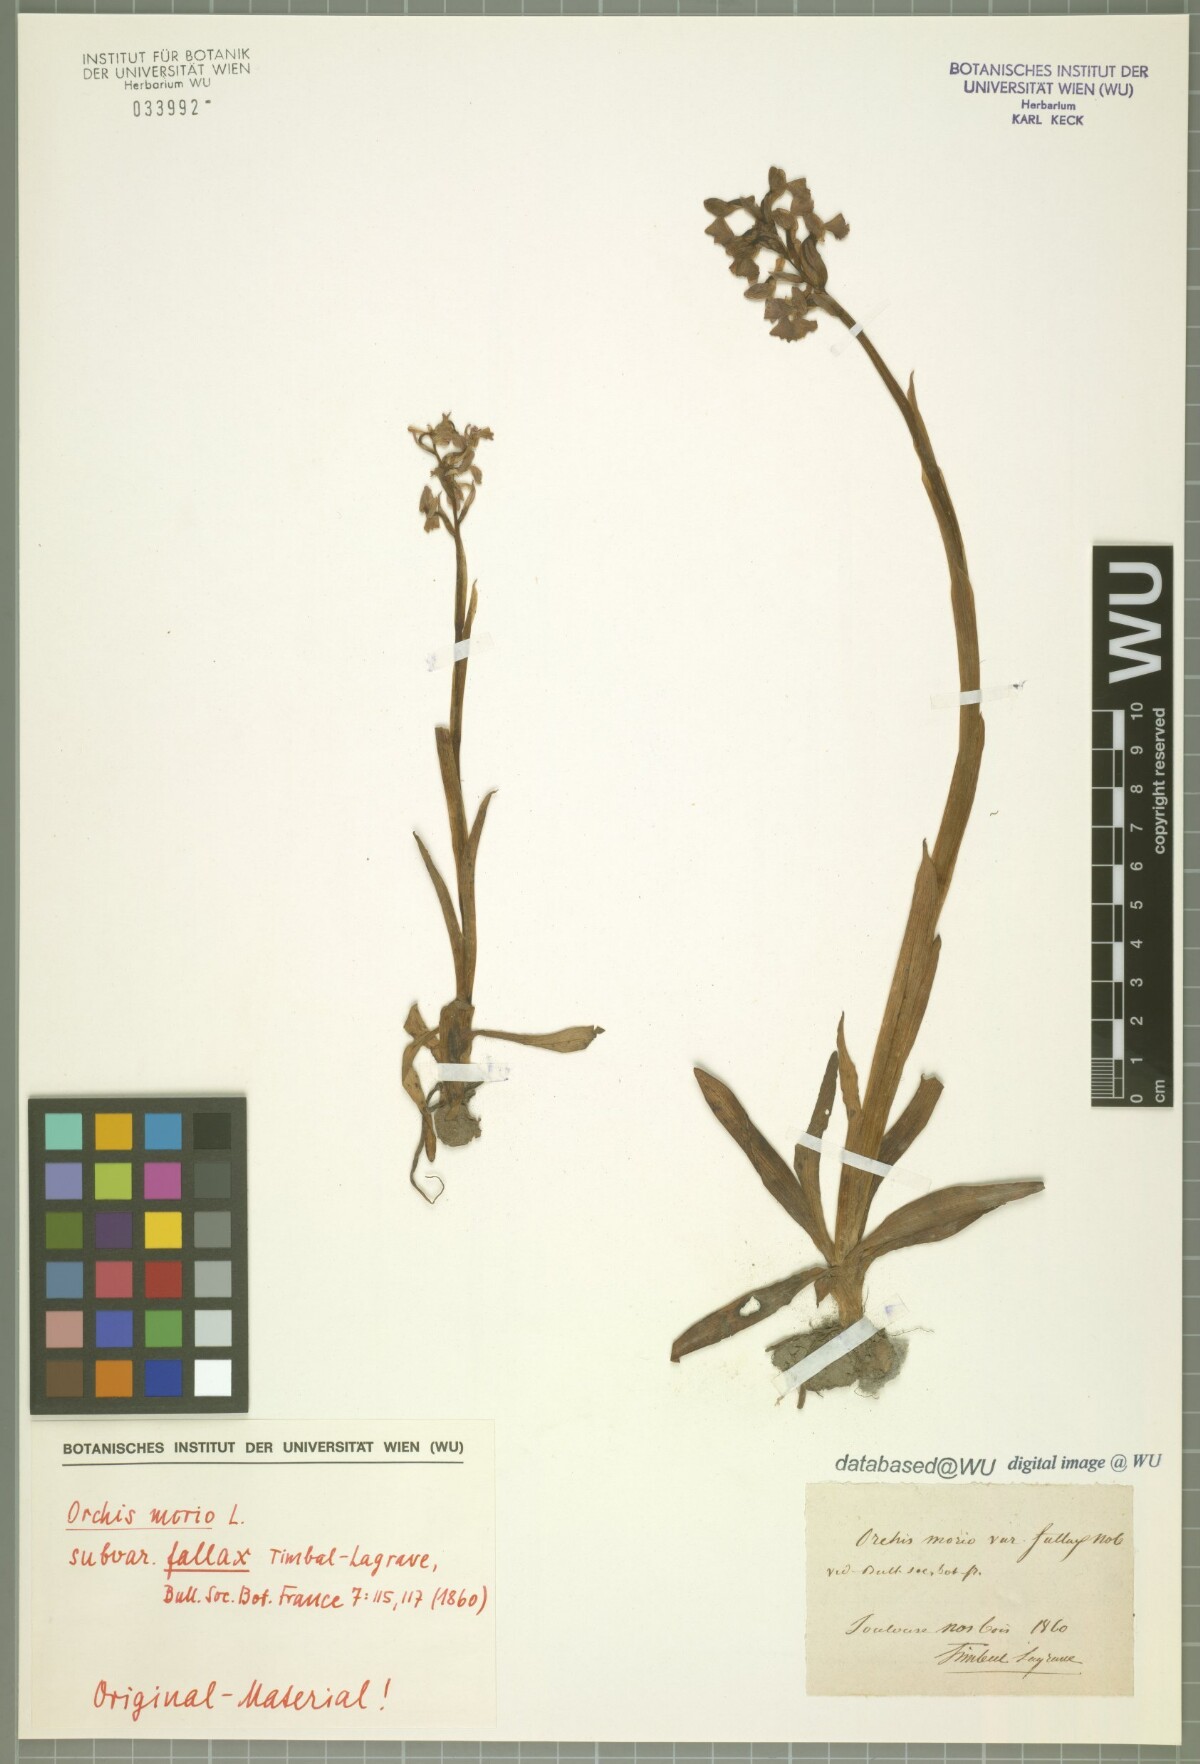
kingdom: Plantae
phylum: Tracheophyta
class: Liliopsida
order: Asparagales
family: Orchidaceae
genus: Orchis
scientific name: Orchis morio
